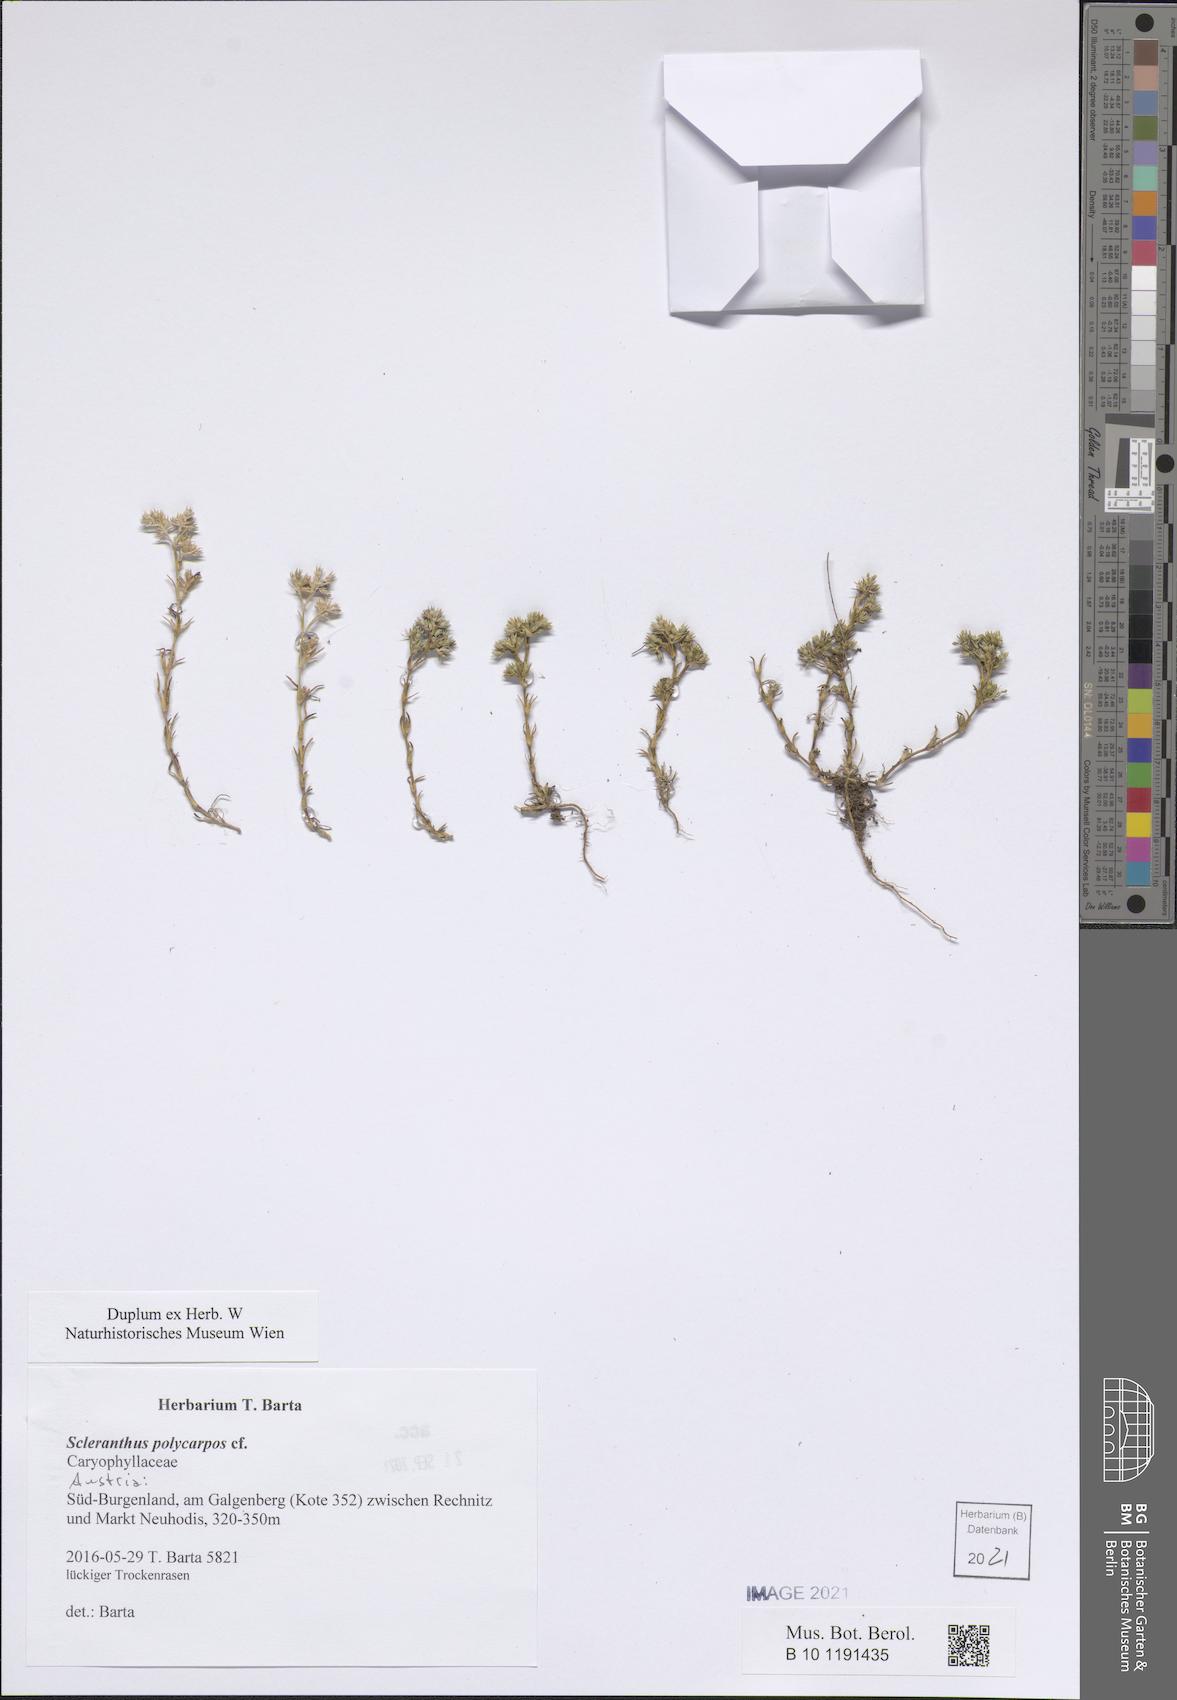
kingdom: Plantae
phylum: Tracheophyta
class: Magnoliopsida
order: Caryophyllales
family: Caryophyllaceae
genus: Scleranthus
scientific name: Scleranthus annuus
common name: Annual knawel
